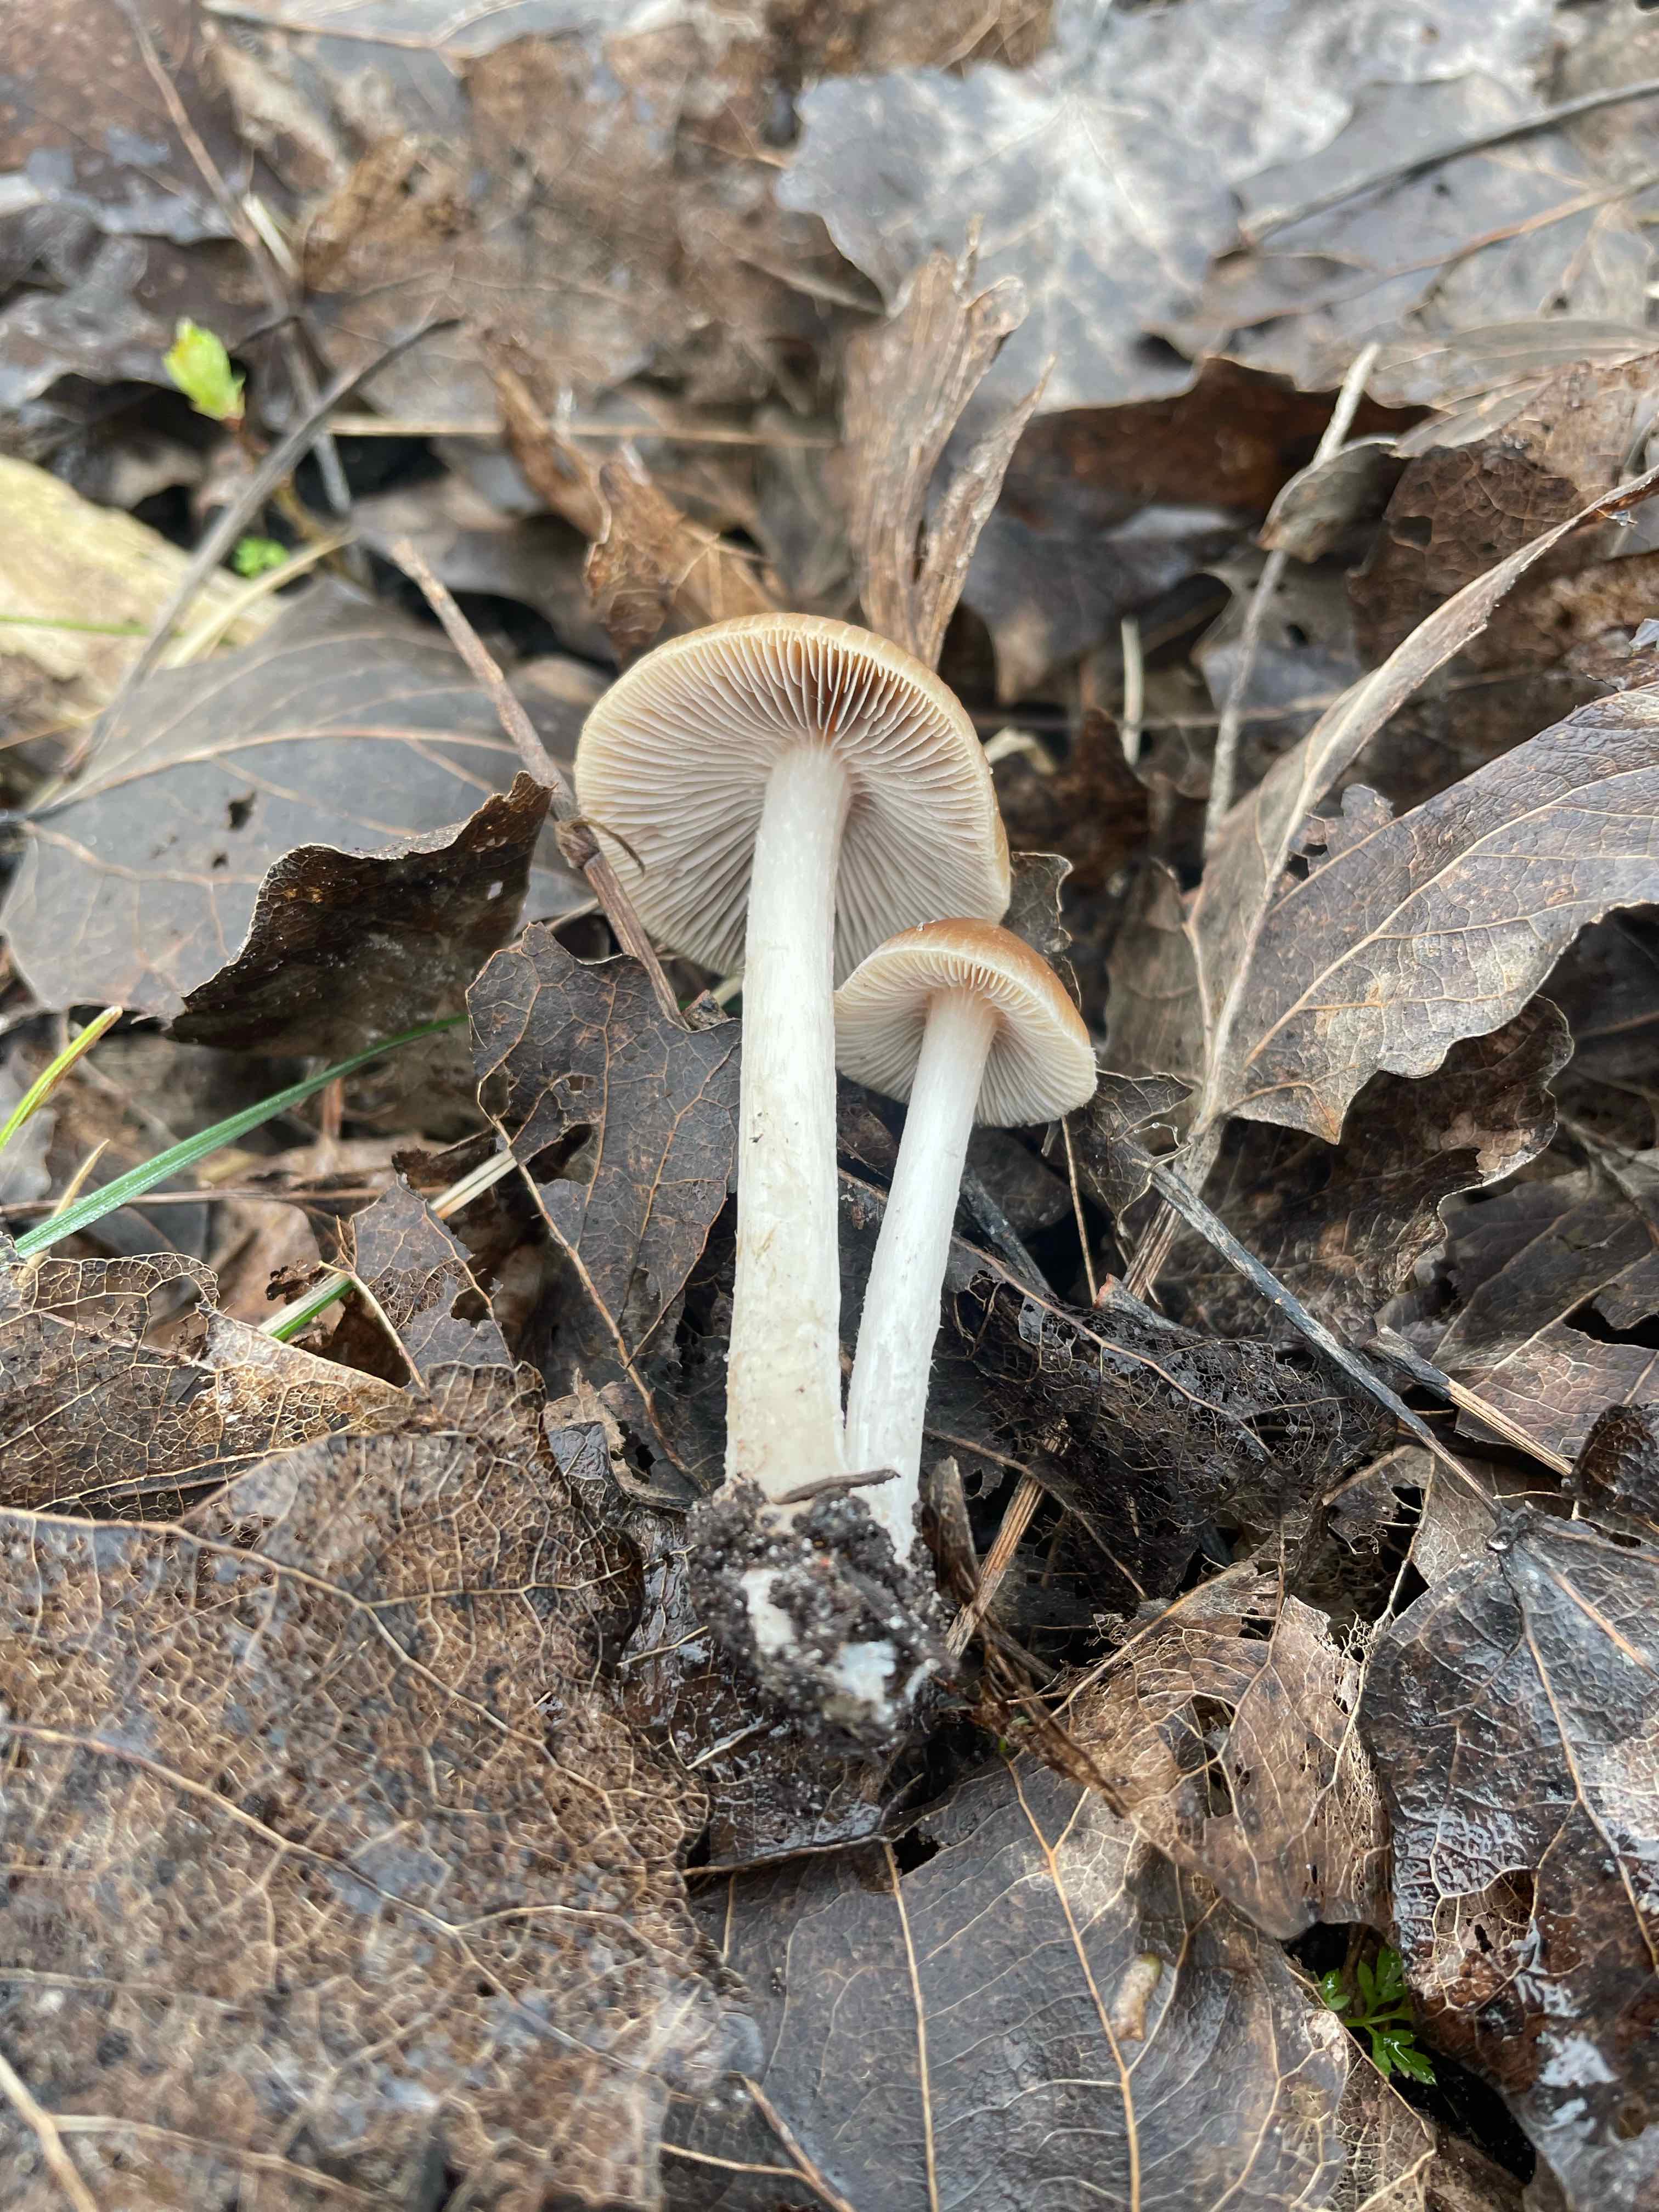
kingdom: Fungi
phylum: Basidiomycota
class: Agaricomycetes
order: Agaricales
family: Psathyrellaceae
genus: Psathyrella
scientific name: Psathyrella spadiceogrisea
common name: gråbrun mørkhat
